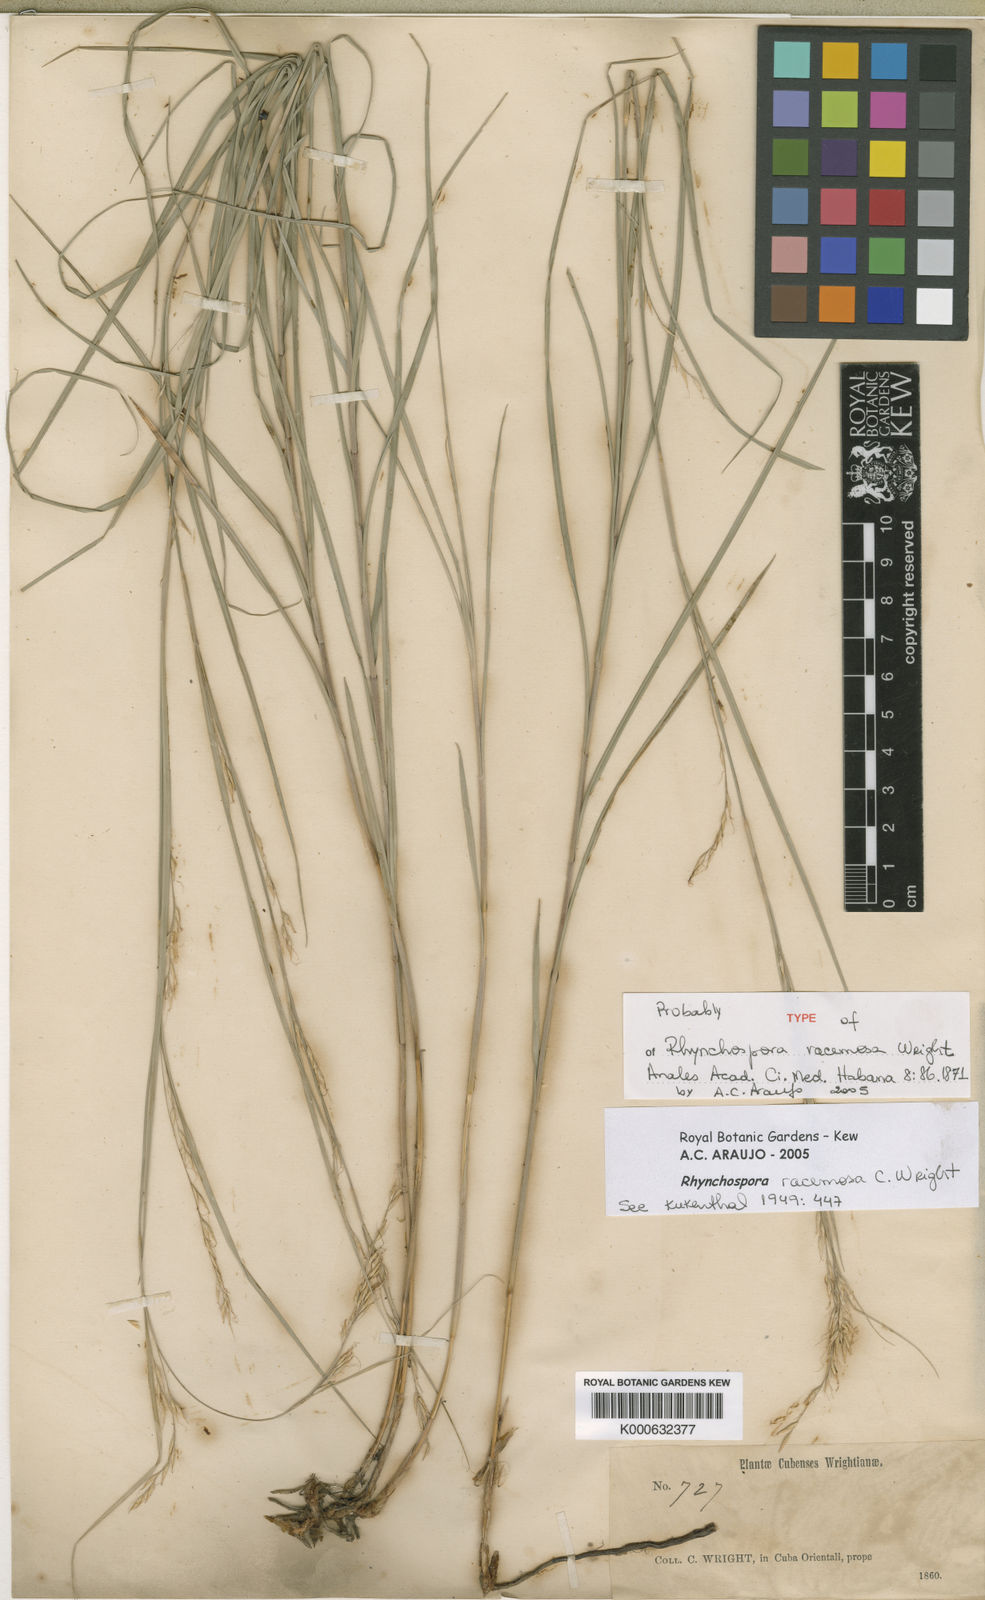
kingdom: Plantae
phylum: Tracheophyta
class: Liliopsida
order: Poales
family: Cyperaceae
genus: Rhynchospora
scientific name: Rhynchospora
